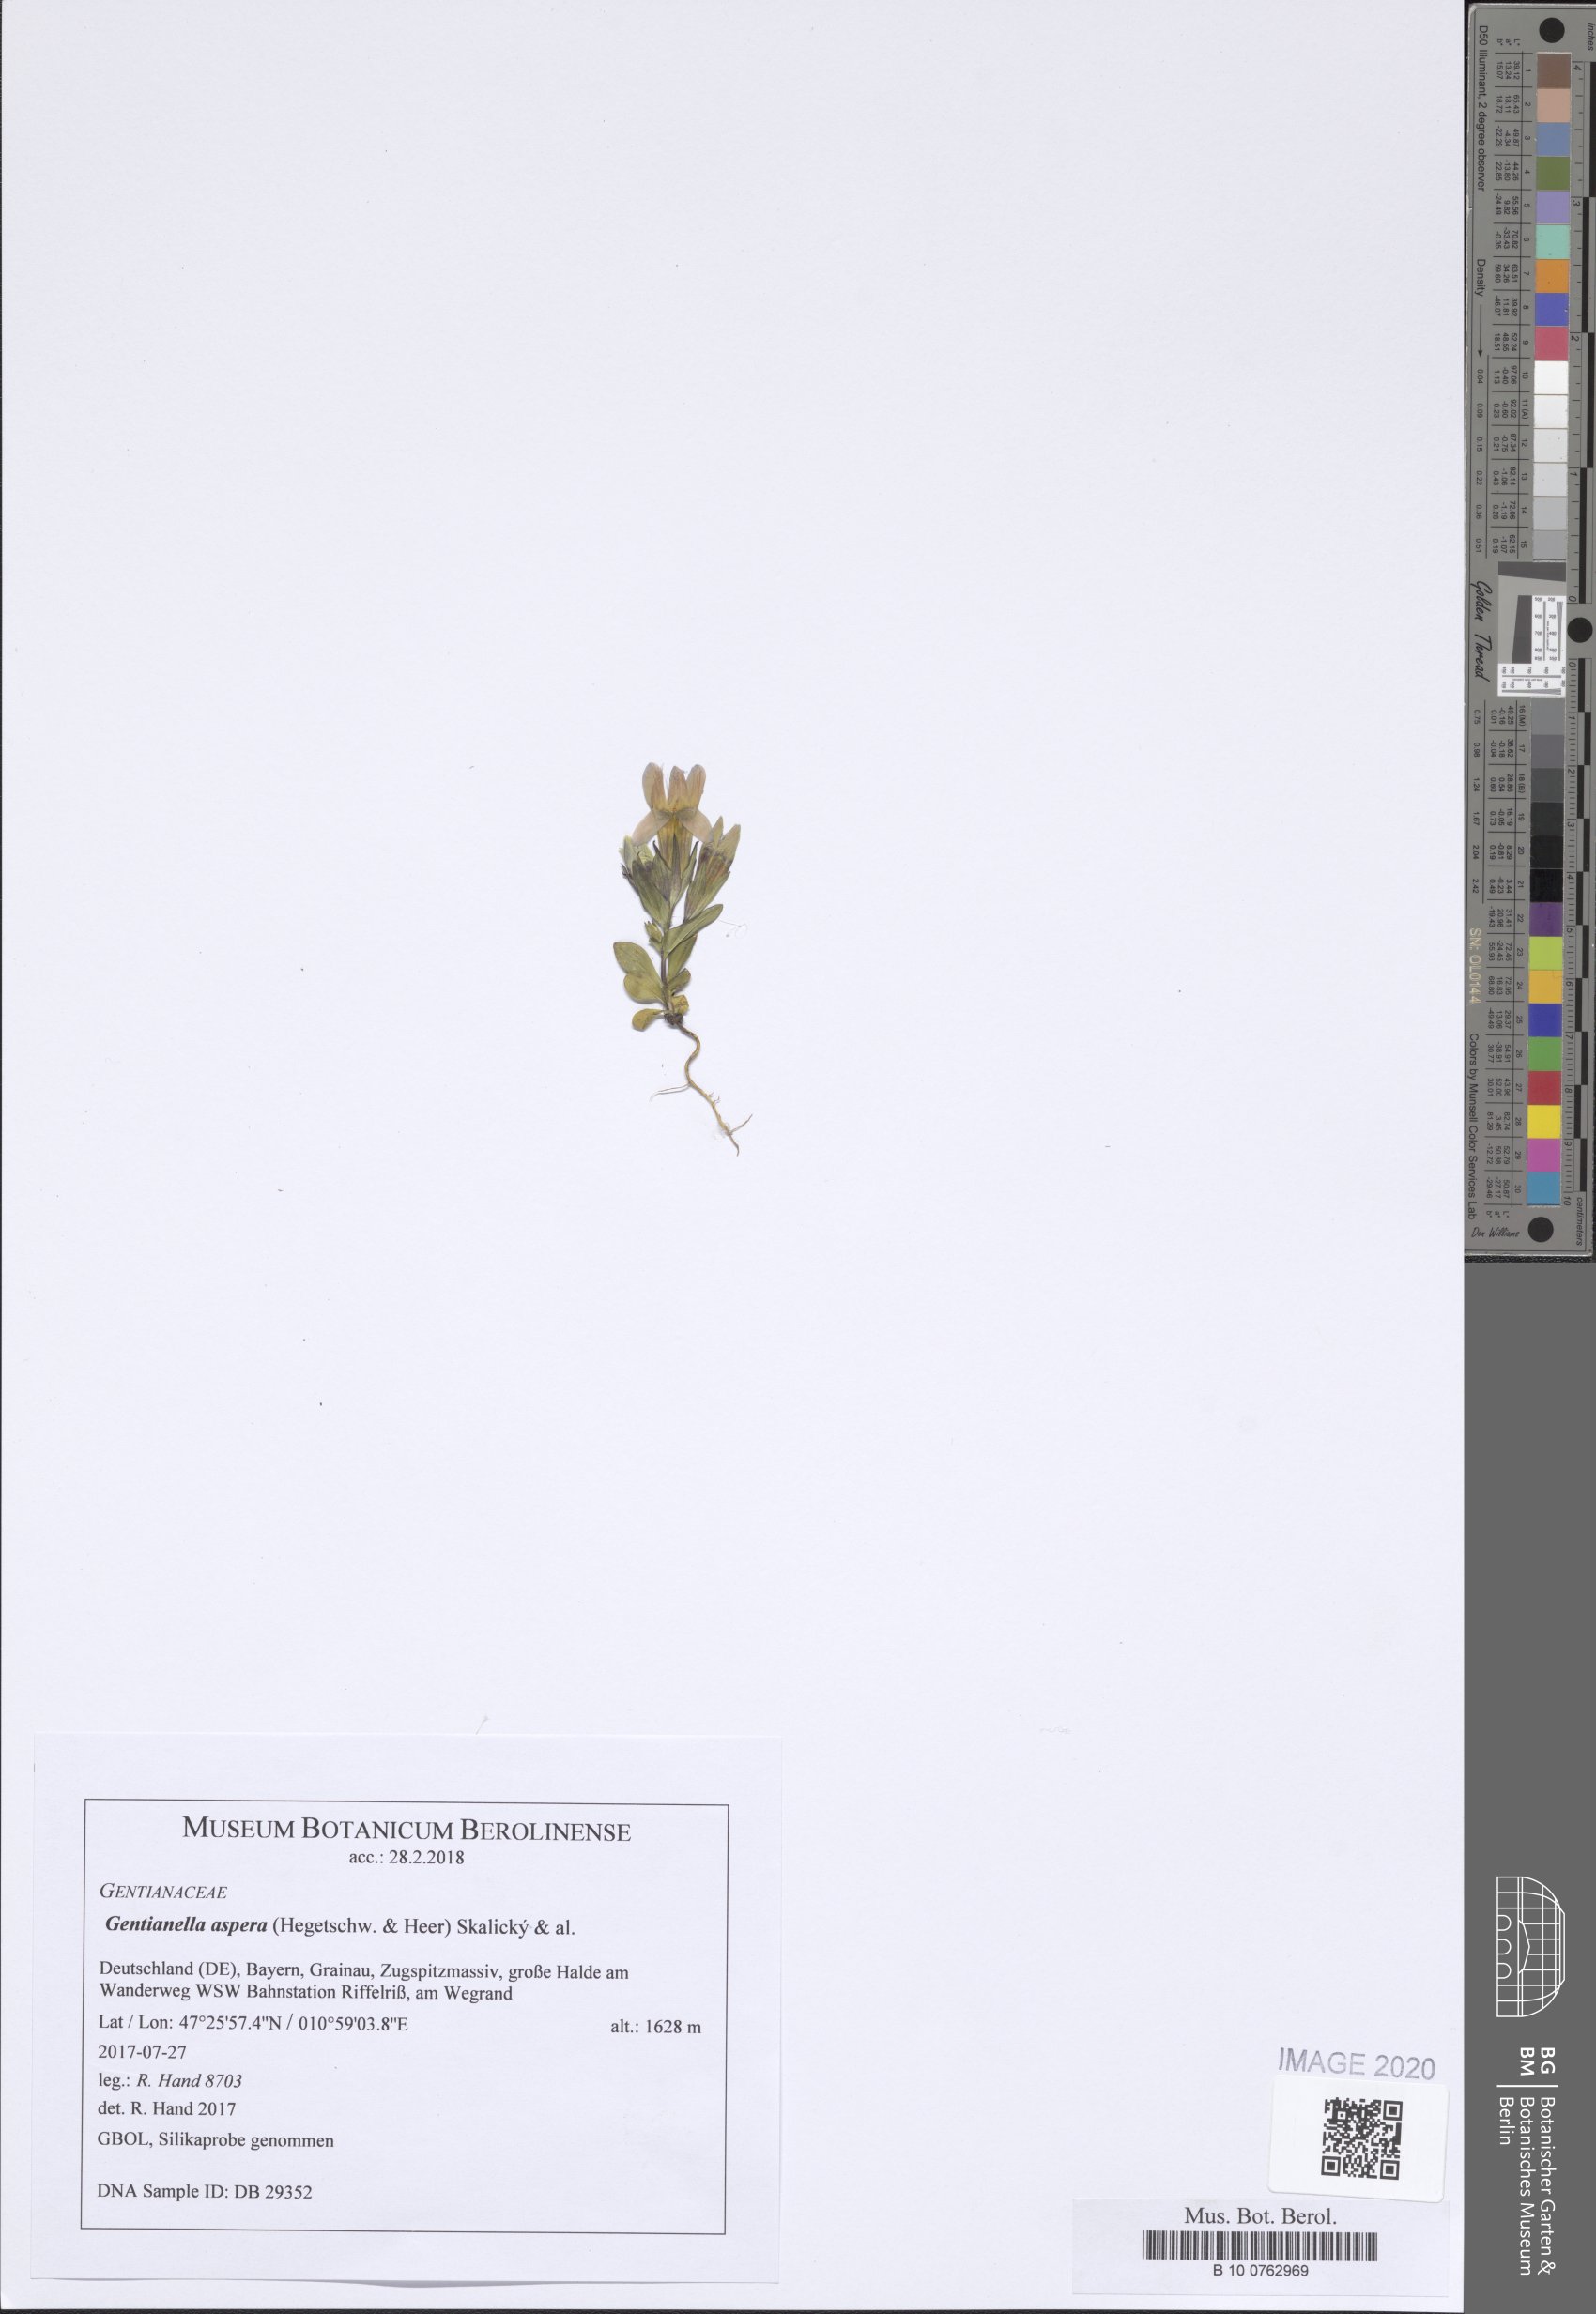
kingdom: Plantae
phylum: Tracheophyta
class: Magnoliopsida
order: Gentianales
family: Gentianaceae
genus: Gentianella
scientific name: Gentianella obtusifolia
